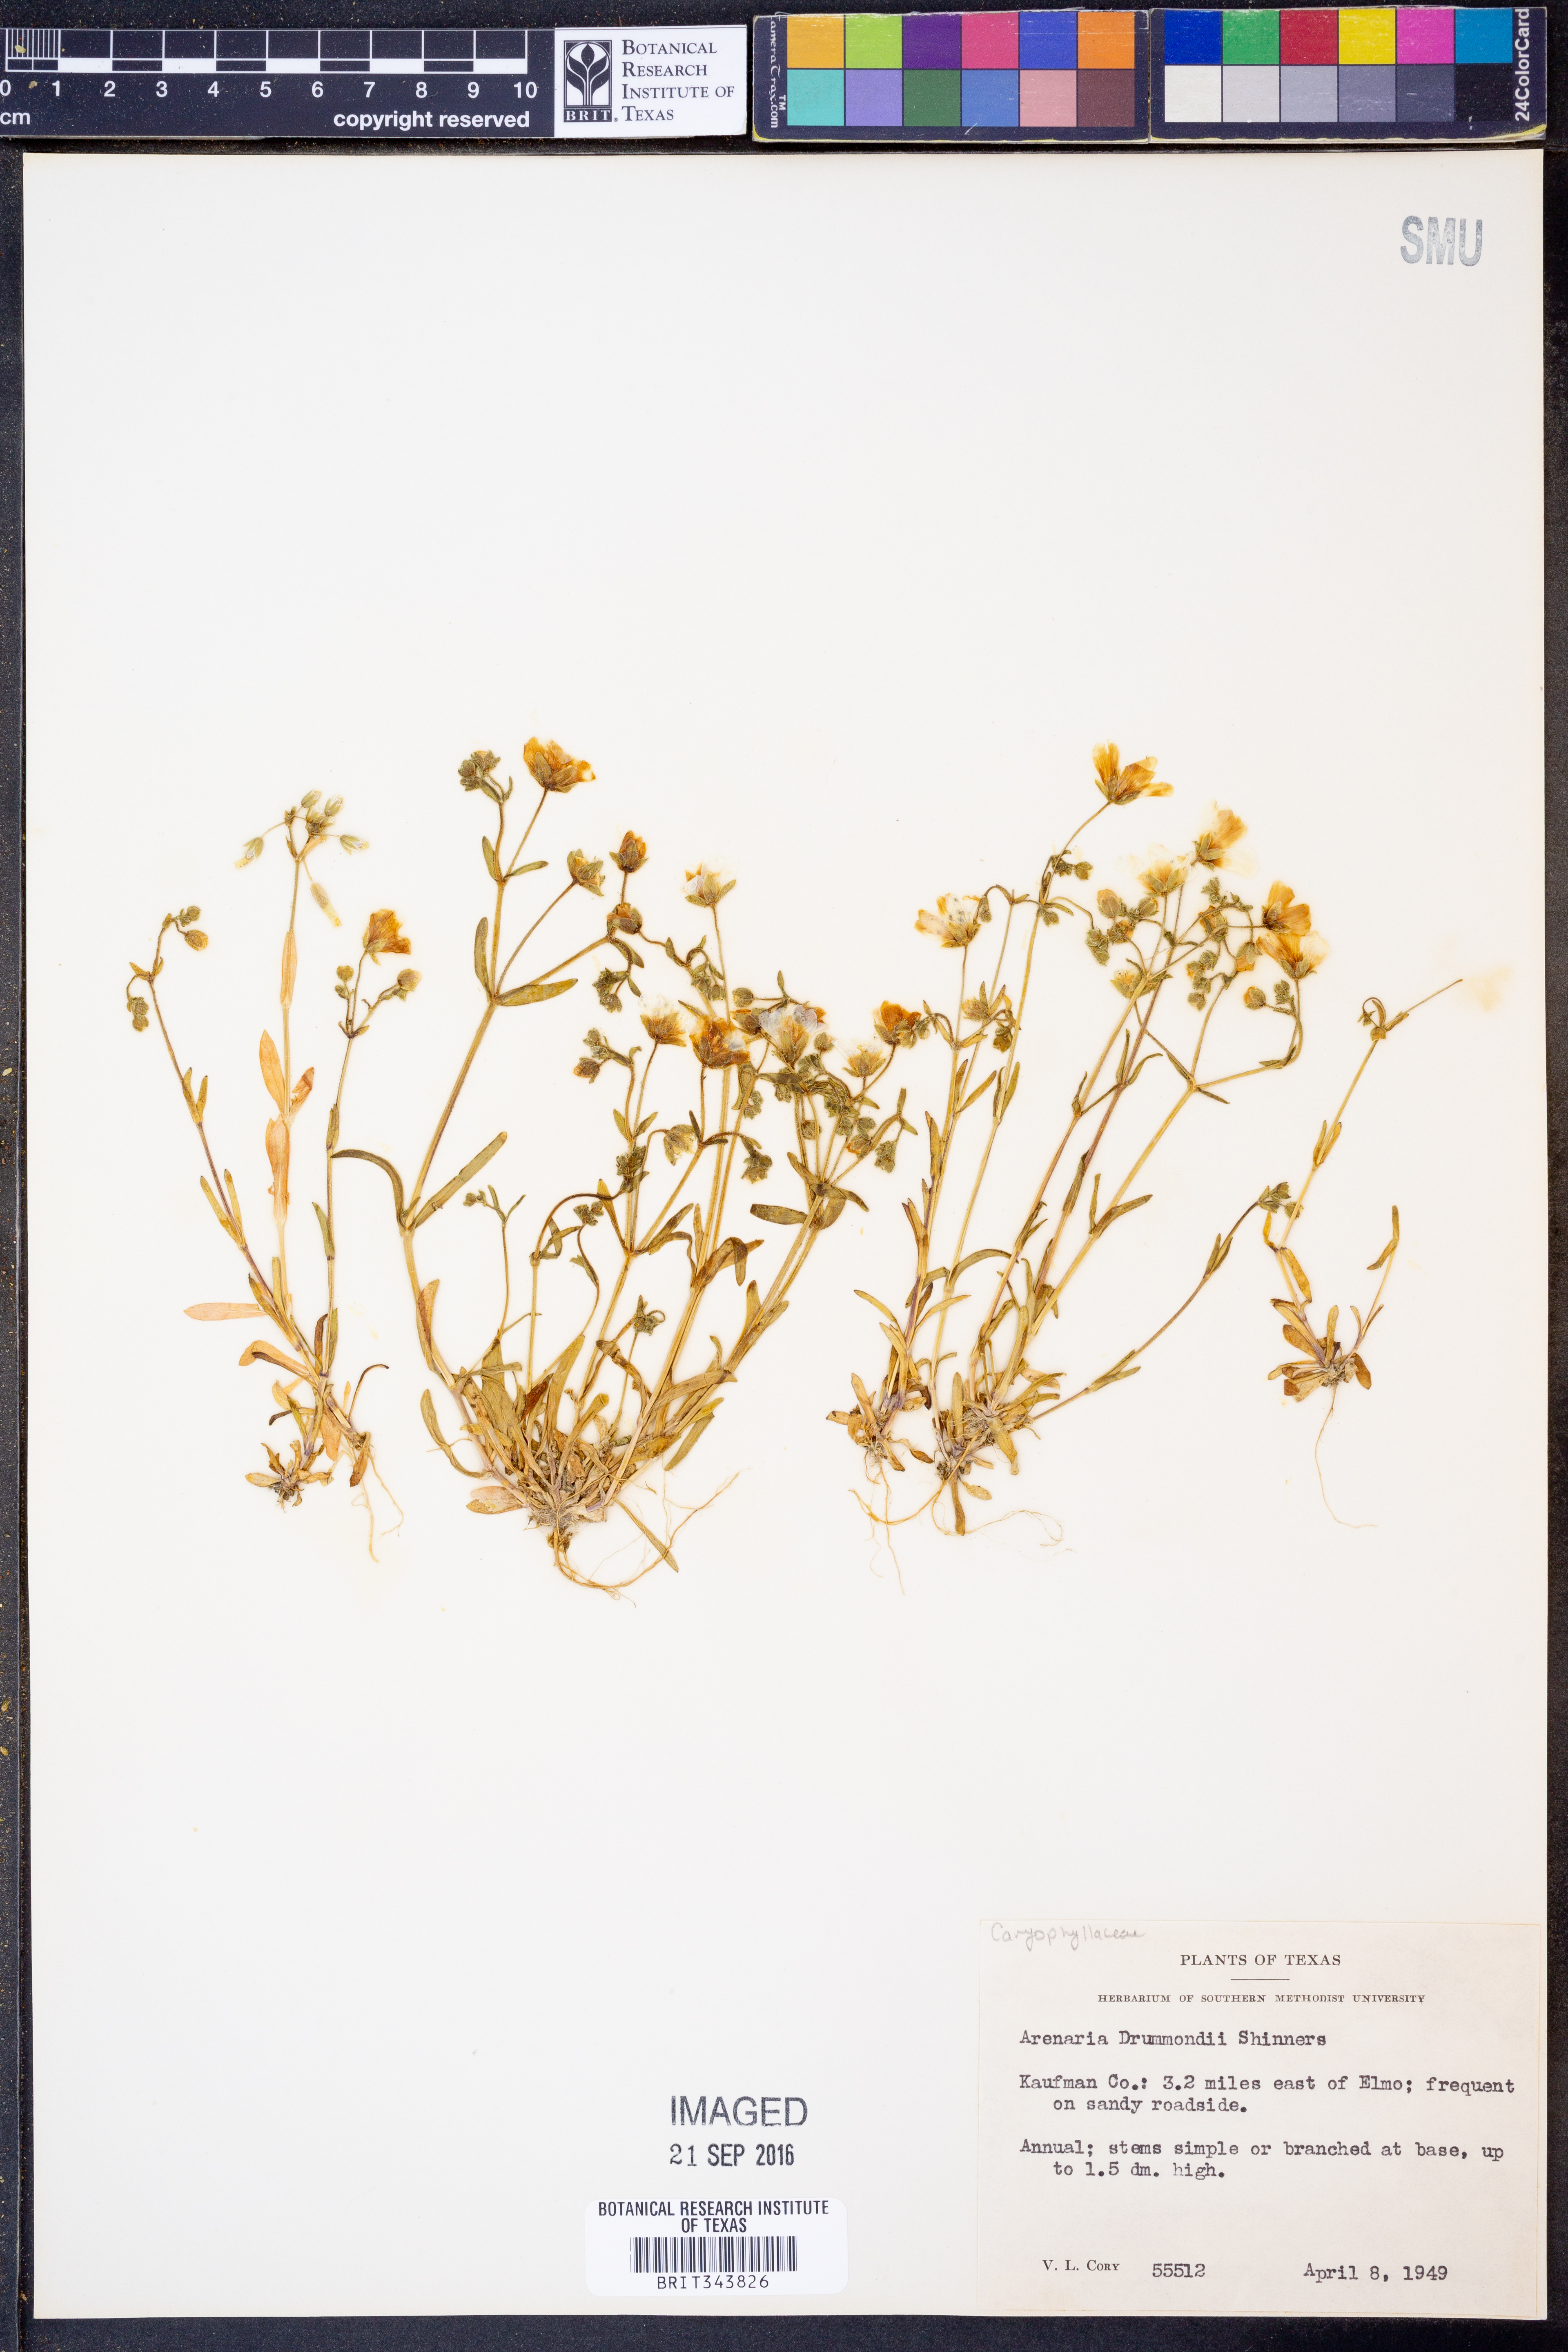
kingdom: Plantae
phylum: Tracheophyta
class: Magnoliopsida
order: Caryophyllales
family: Caryophyllaceae
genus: Geocarpon
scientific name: Geocarpon nuttallii
